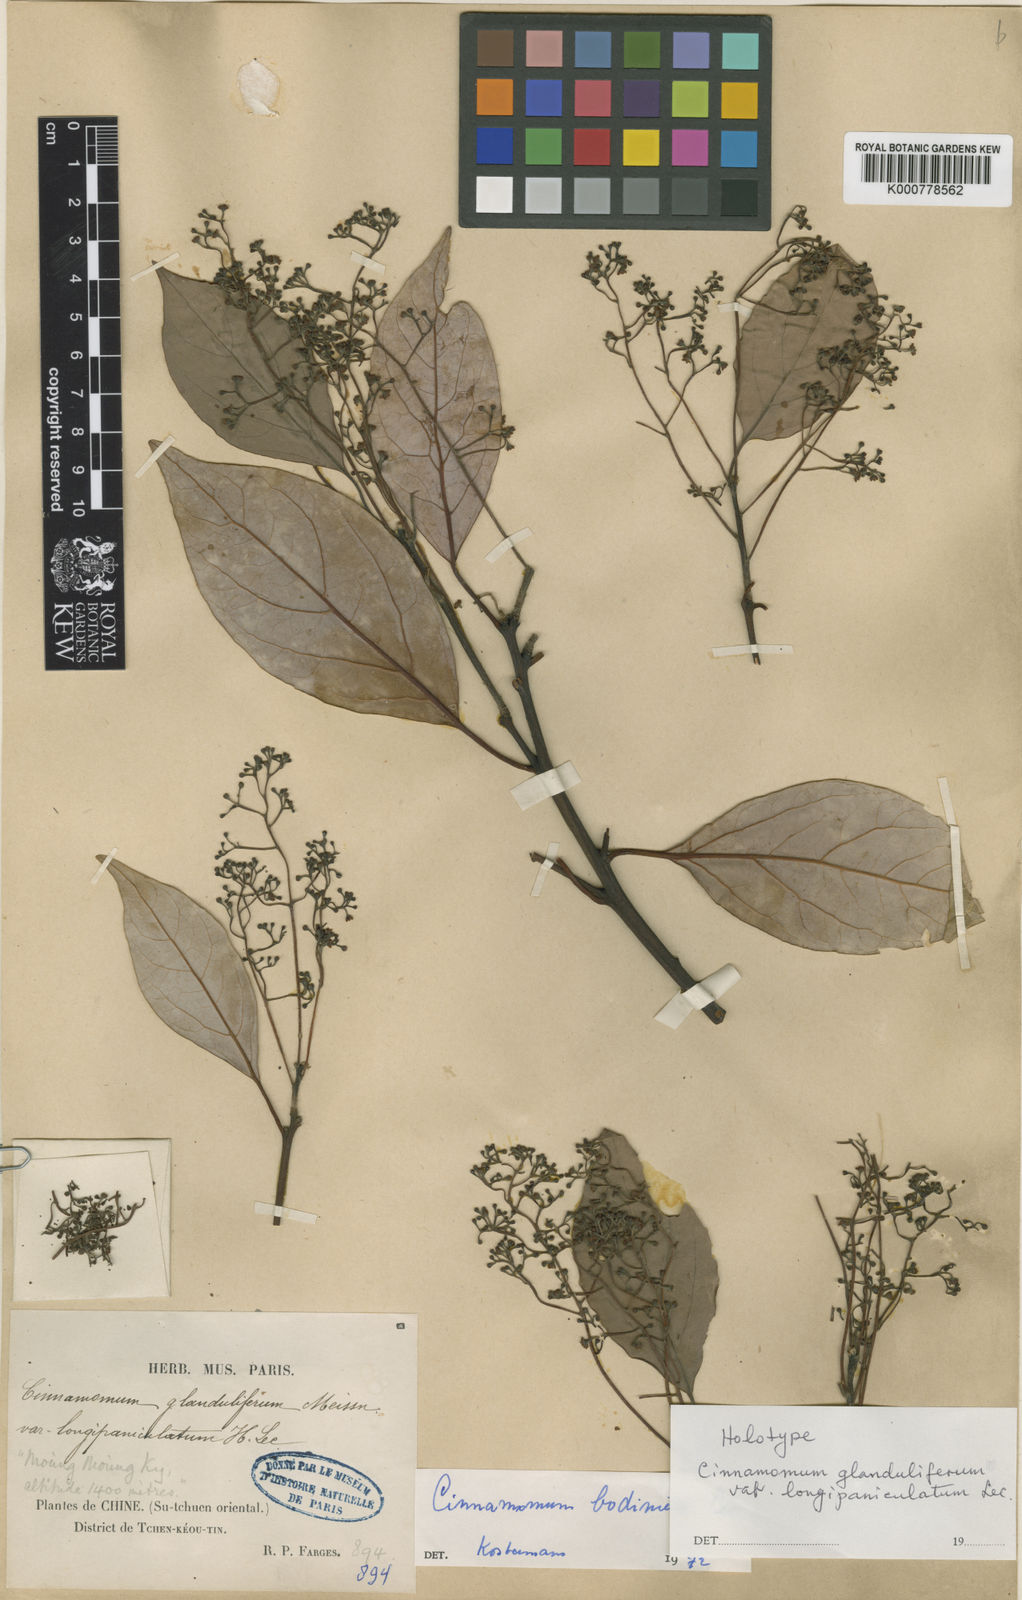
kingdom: Plantae
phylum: Tracheophyta
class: Magnoliopsida
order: Laurales
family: Lauraceae
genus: Cinnamomum
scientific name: Cinnamomum
